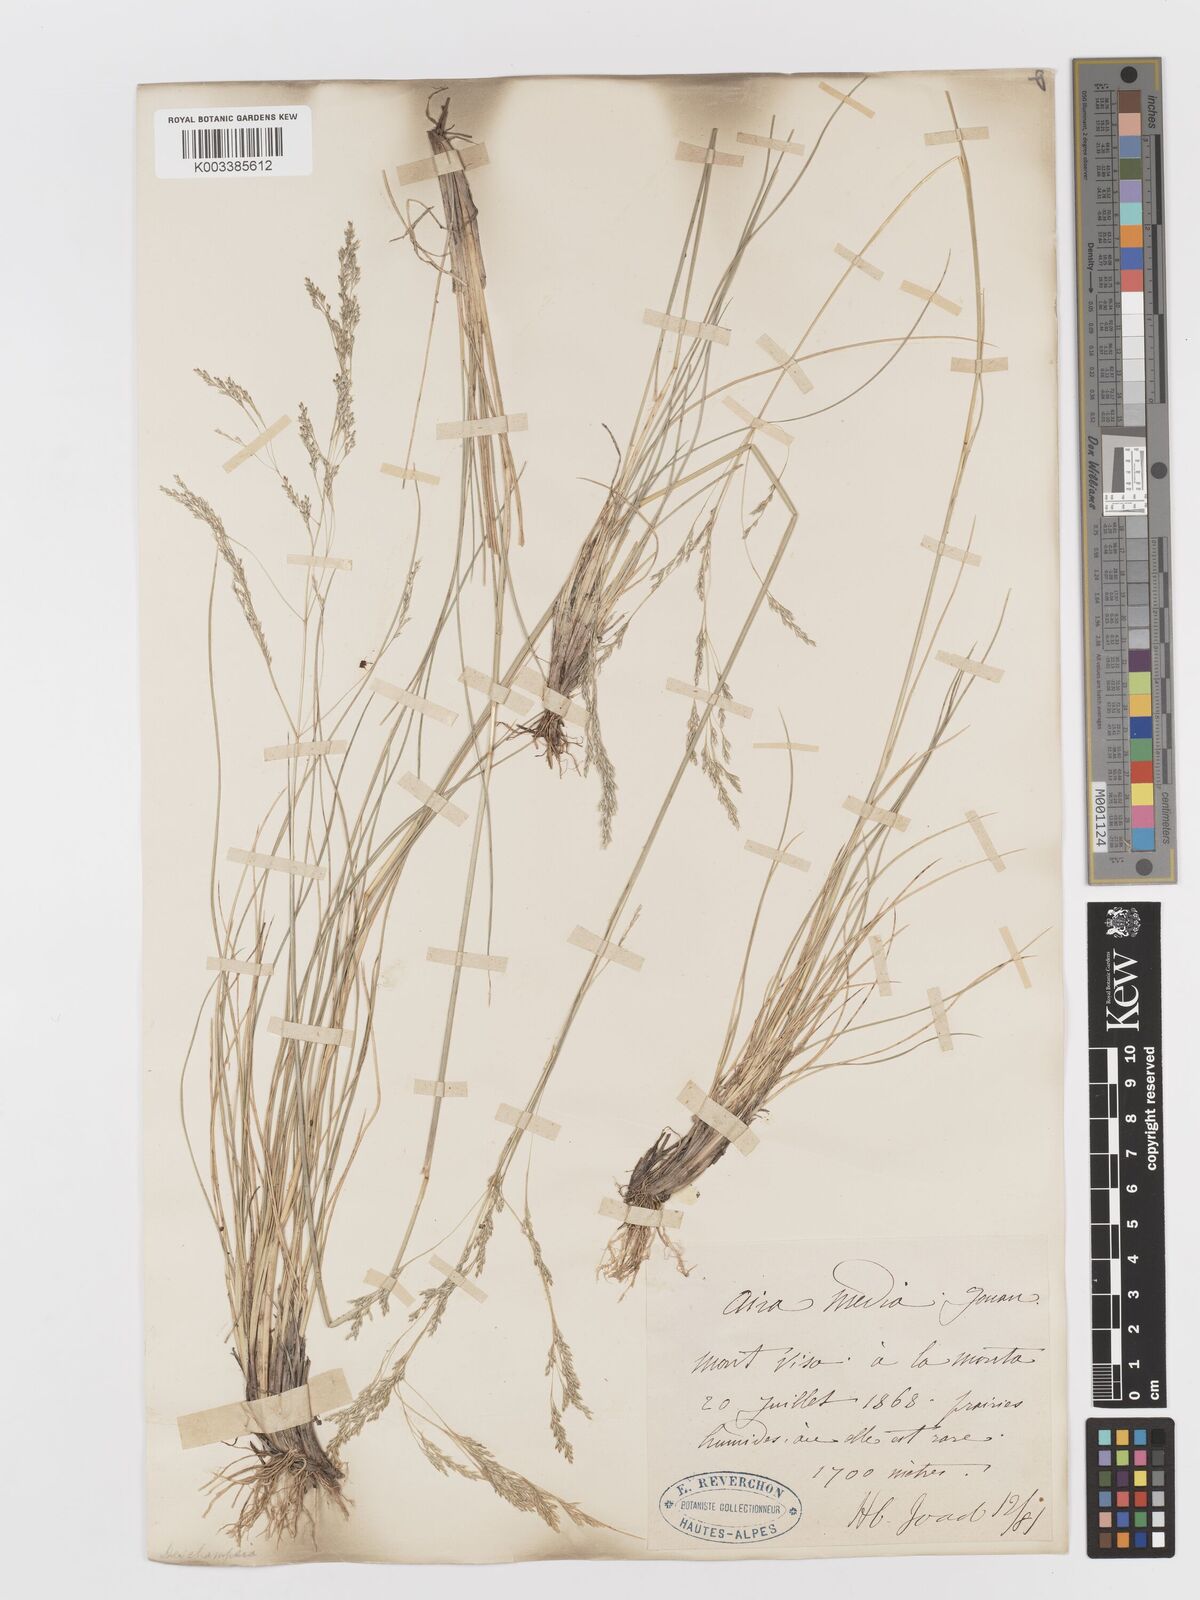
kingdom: Plantae
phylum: Tracheophyta
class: Liliopsida
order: Poales
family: Poaceae
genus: Deschampsia
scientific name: Deschampsia media
